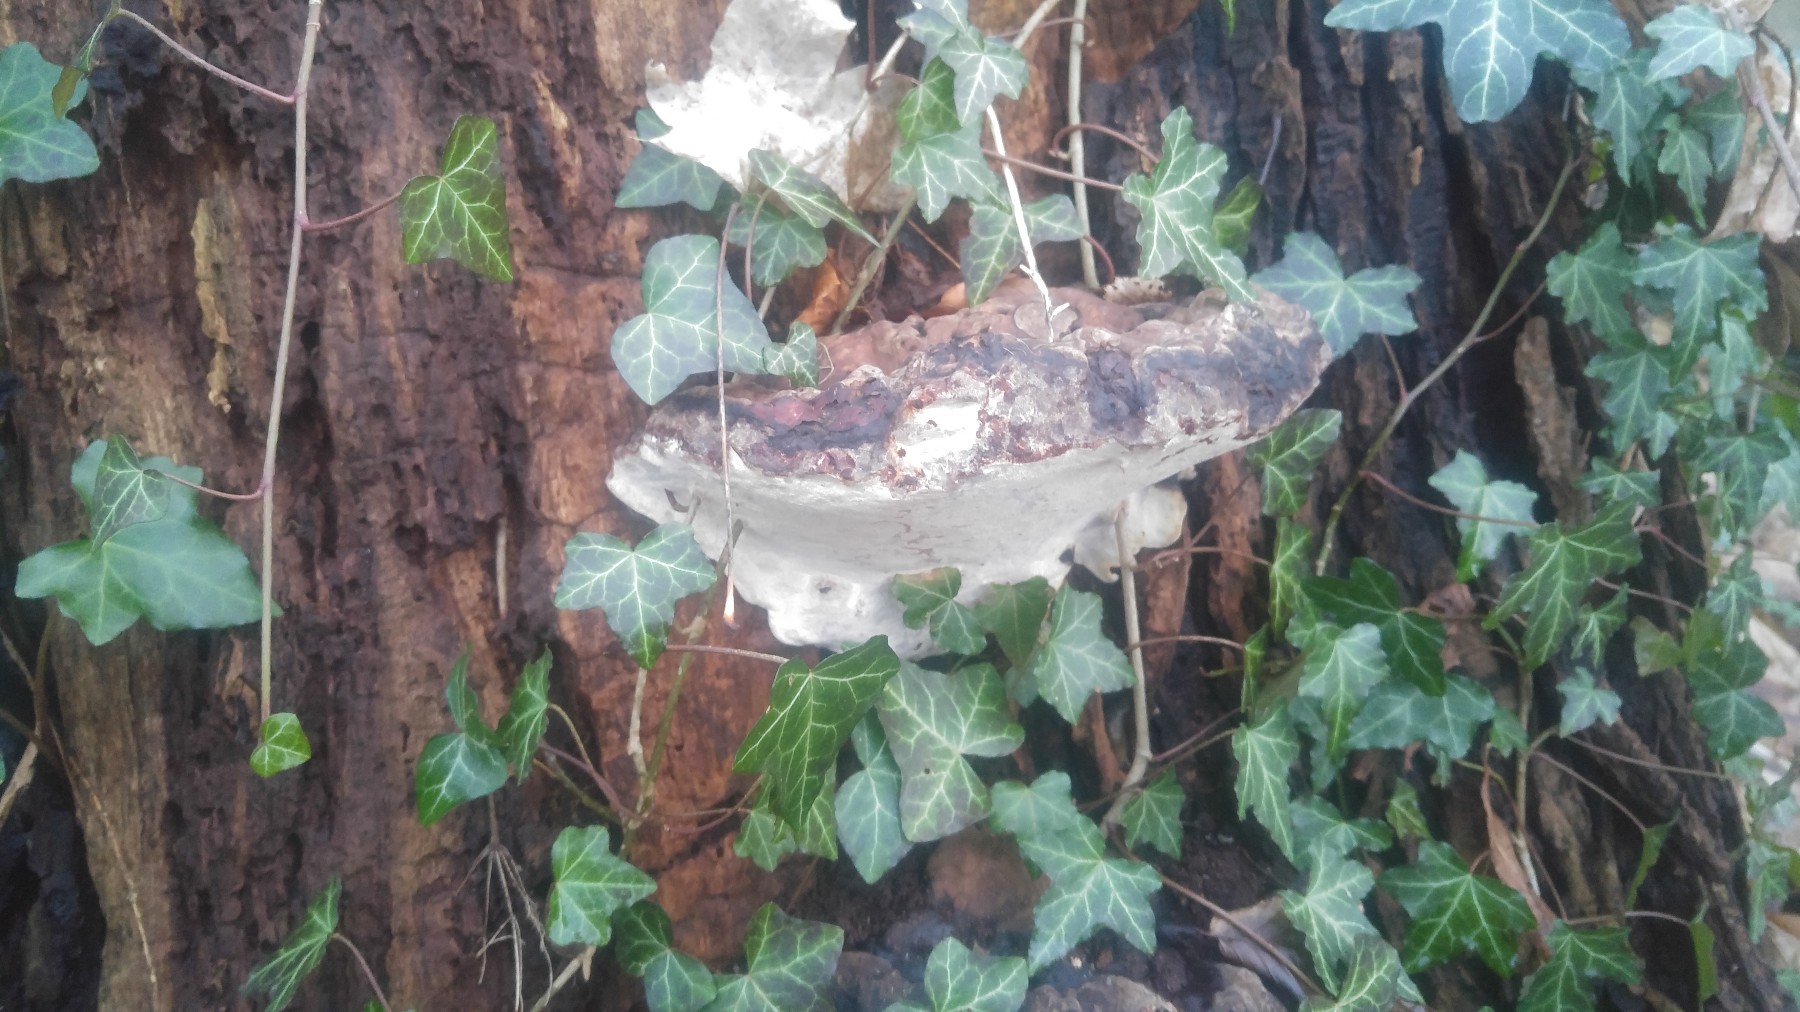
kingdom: Fungi
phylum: Basidiomycota
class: Agaricomycetes
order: Polyporales
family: Fomitopsidaceae
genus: Fomitopsis
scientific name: Fomitopsis pinicola
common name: randbæltet hovporesvamp
